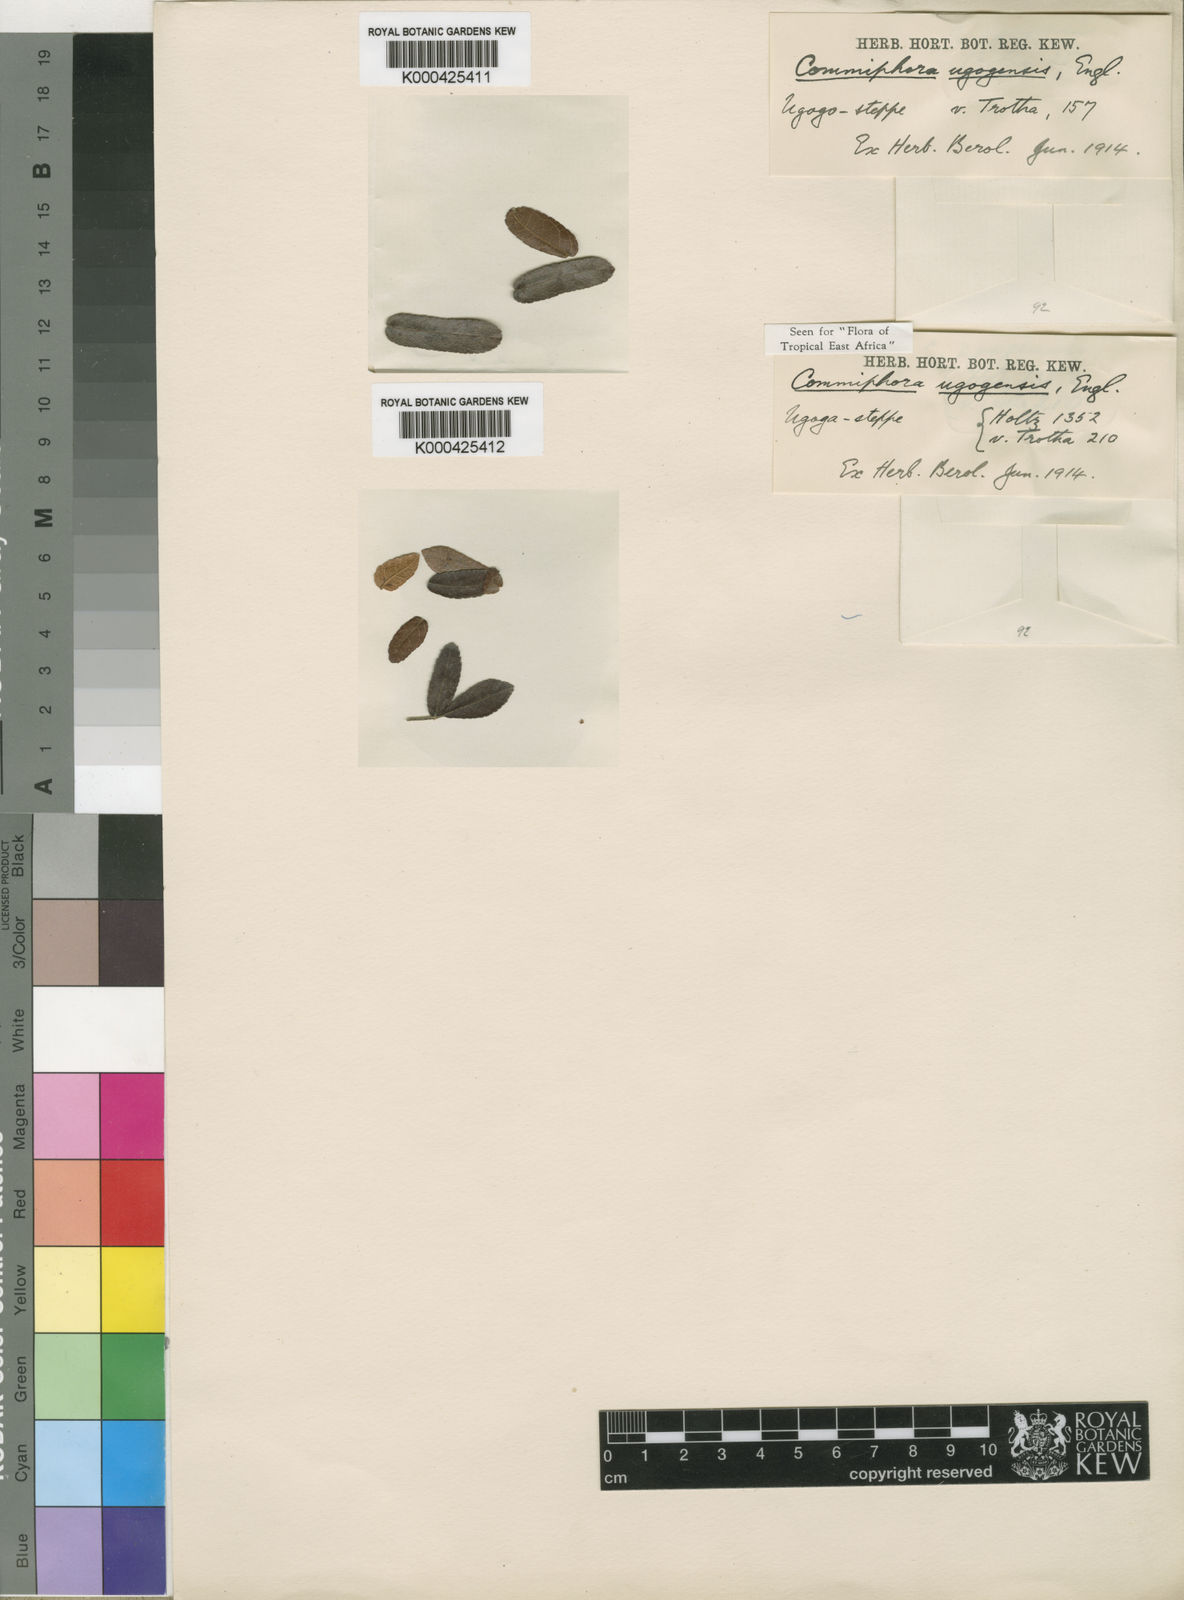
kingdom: Plantae
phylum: Tracheophyta
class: Magnoliopsida
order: Sapindales
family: Burseraceae
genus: Commiphora
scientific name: Commiphora ugogensis
